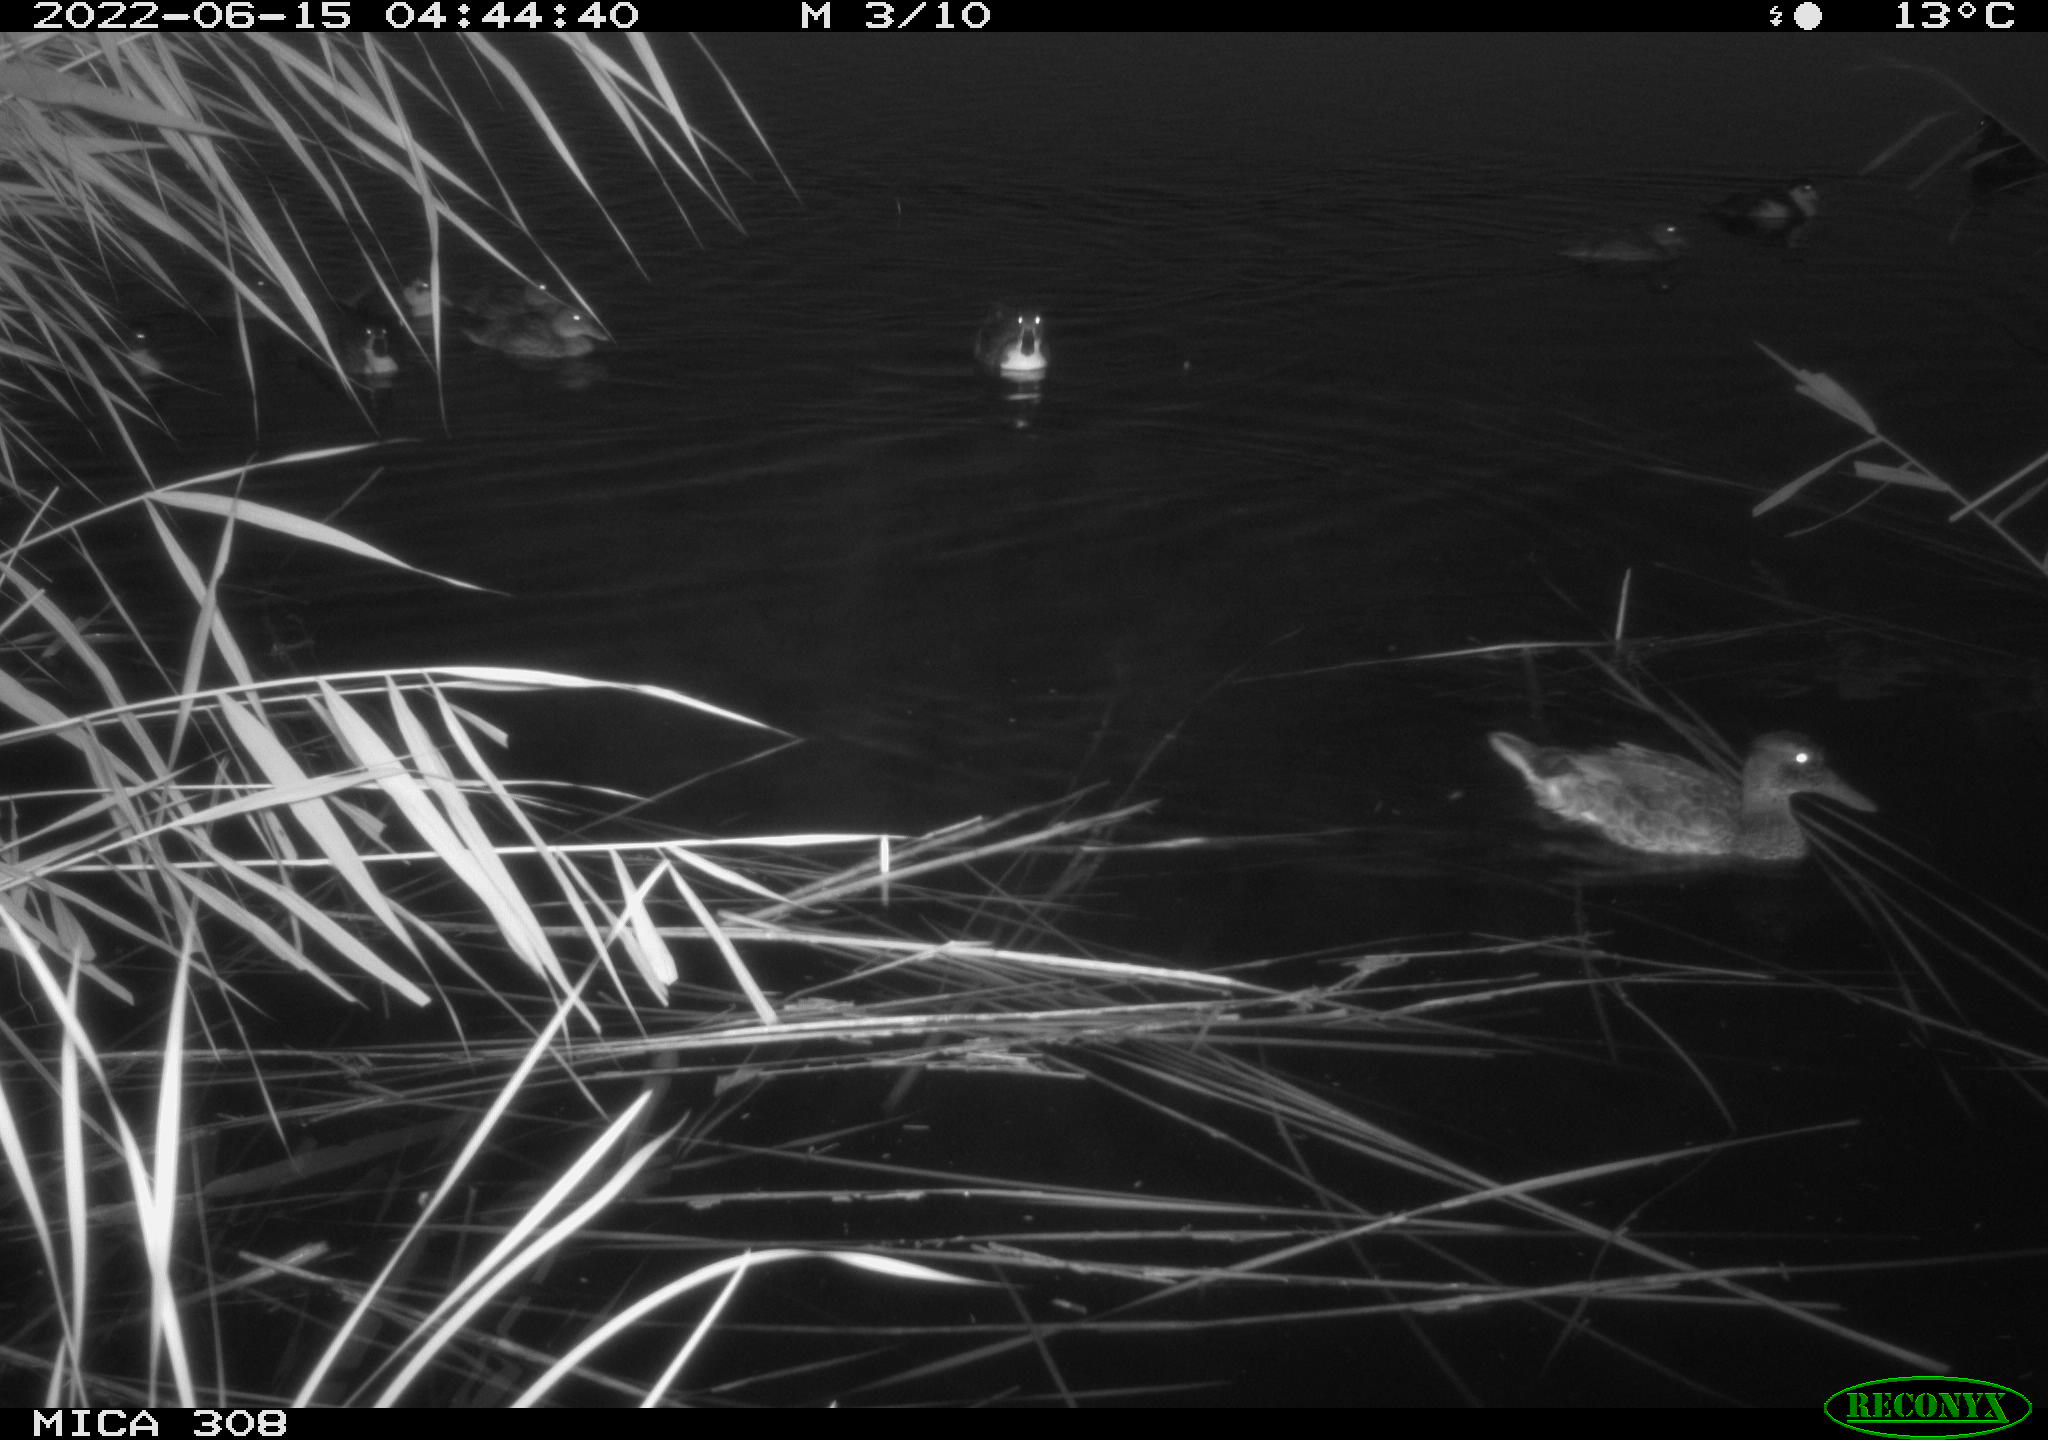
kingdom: Animalia
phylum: Chordata
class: Aves
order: Anseriformes
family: Anatidae
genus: Anas
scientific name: Anas platyrhynchos
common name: Mallard
